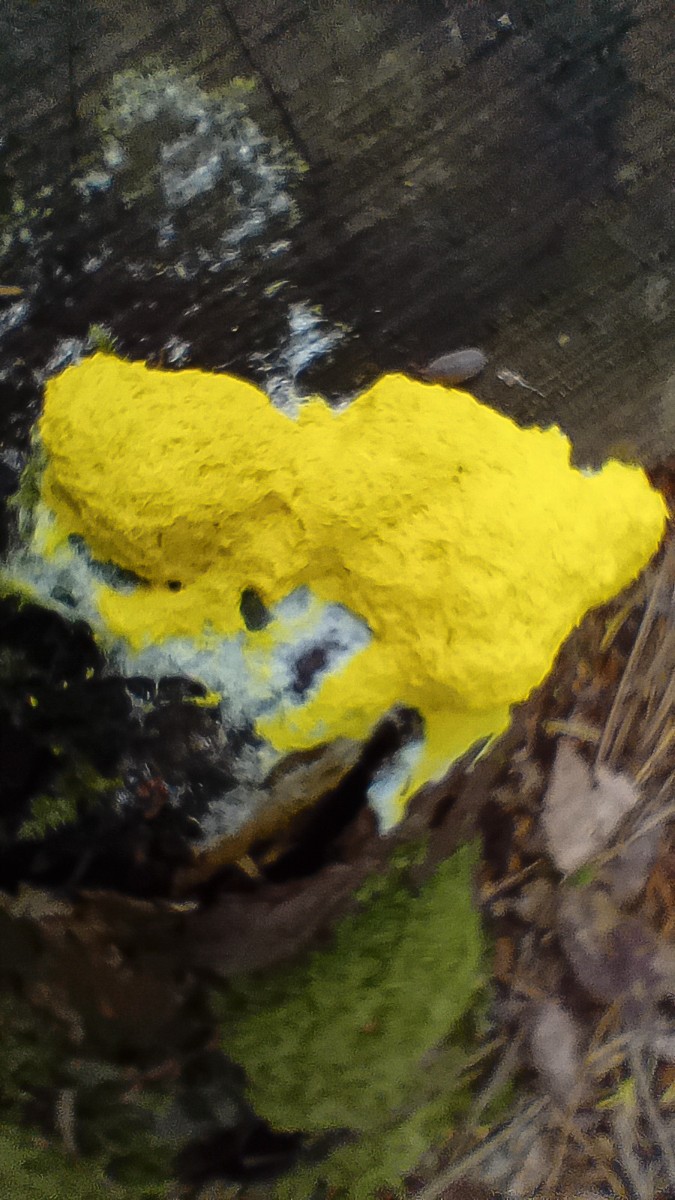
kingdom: Protozoa
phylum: Mycetozoa
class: Myxomycetes
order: Physarales
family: Physaraceae
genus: Fuligo
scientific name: Fuligo septica
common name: gul troldsmør
